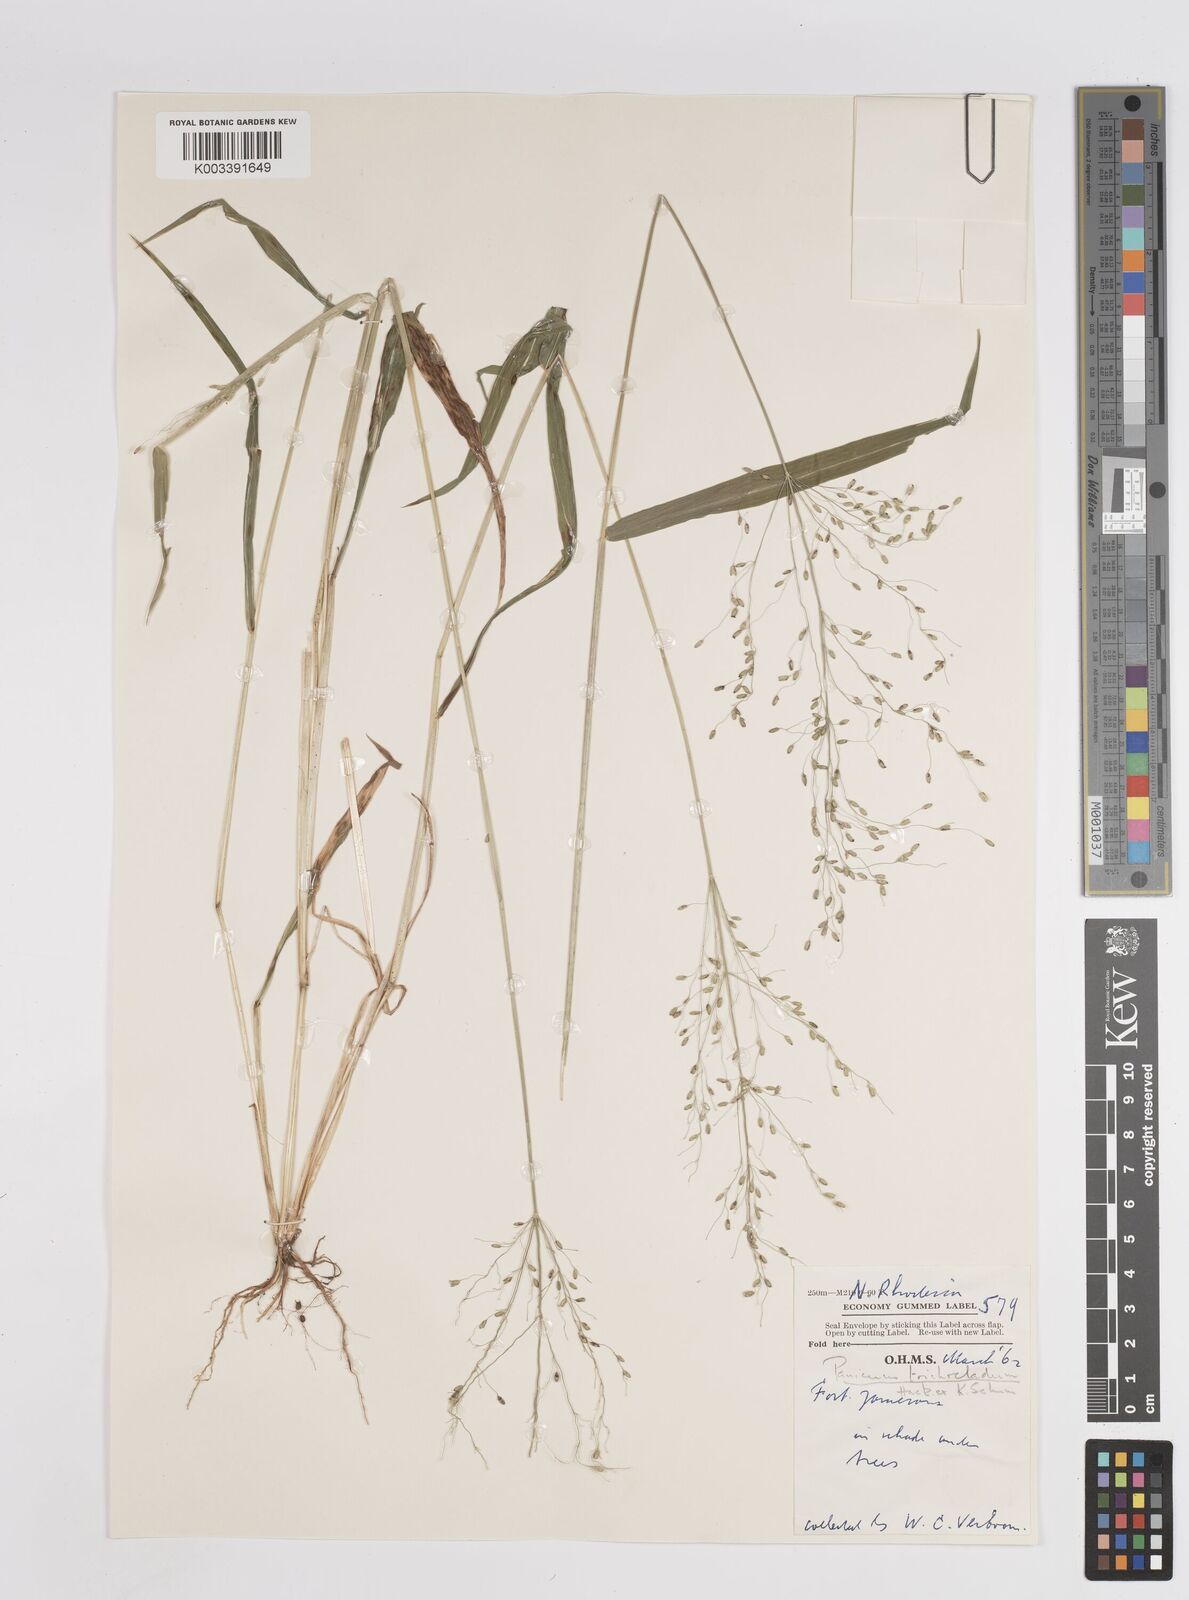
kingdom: Plantae
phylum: Tracheophyta
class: Liliopsida
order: Poales
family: Poaceae
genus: Megathyrsus
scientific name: Megathyrsus maximus
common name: Guineagrass
